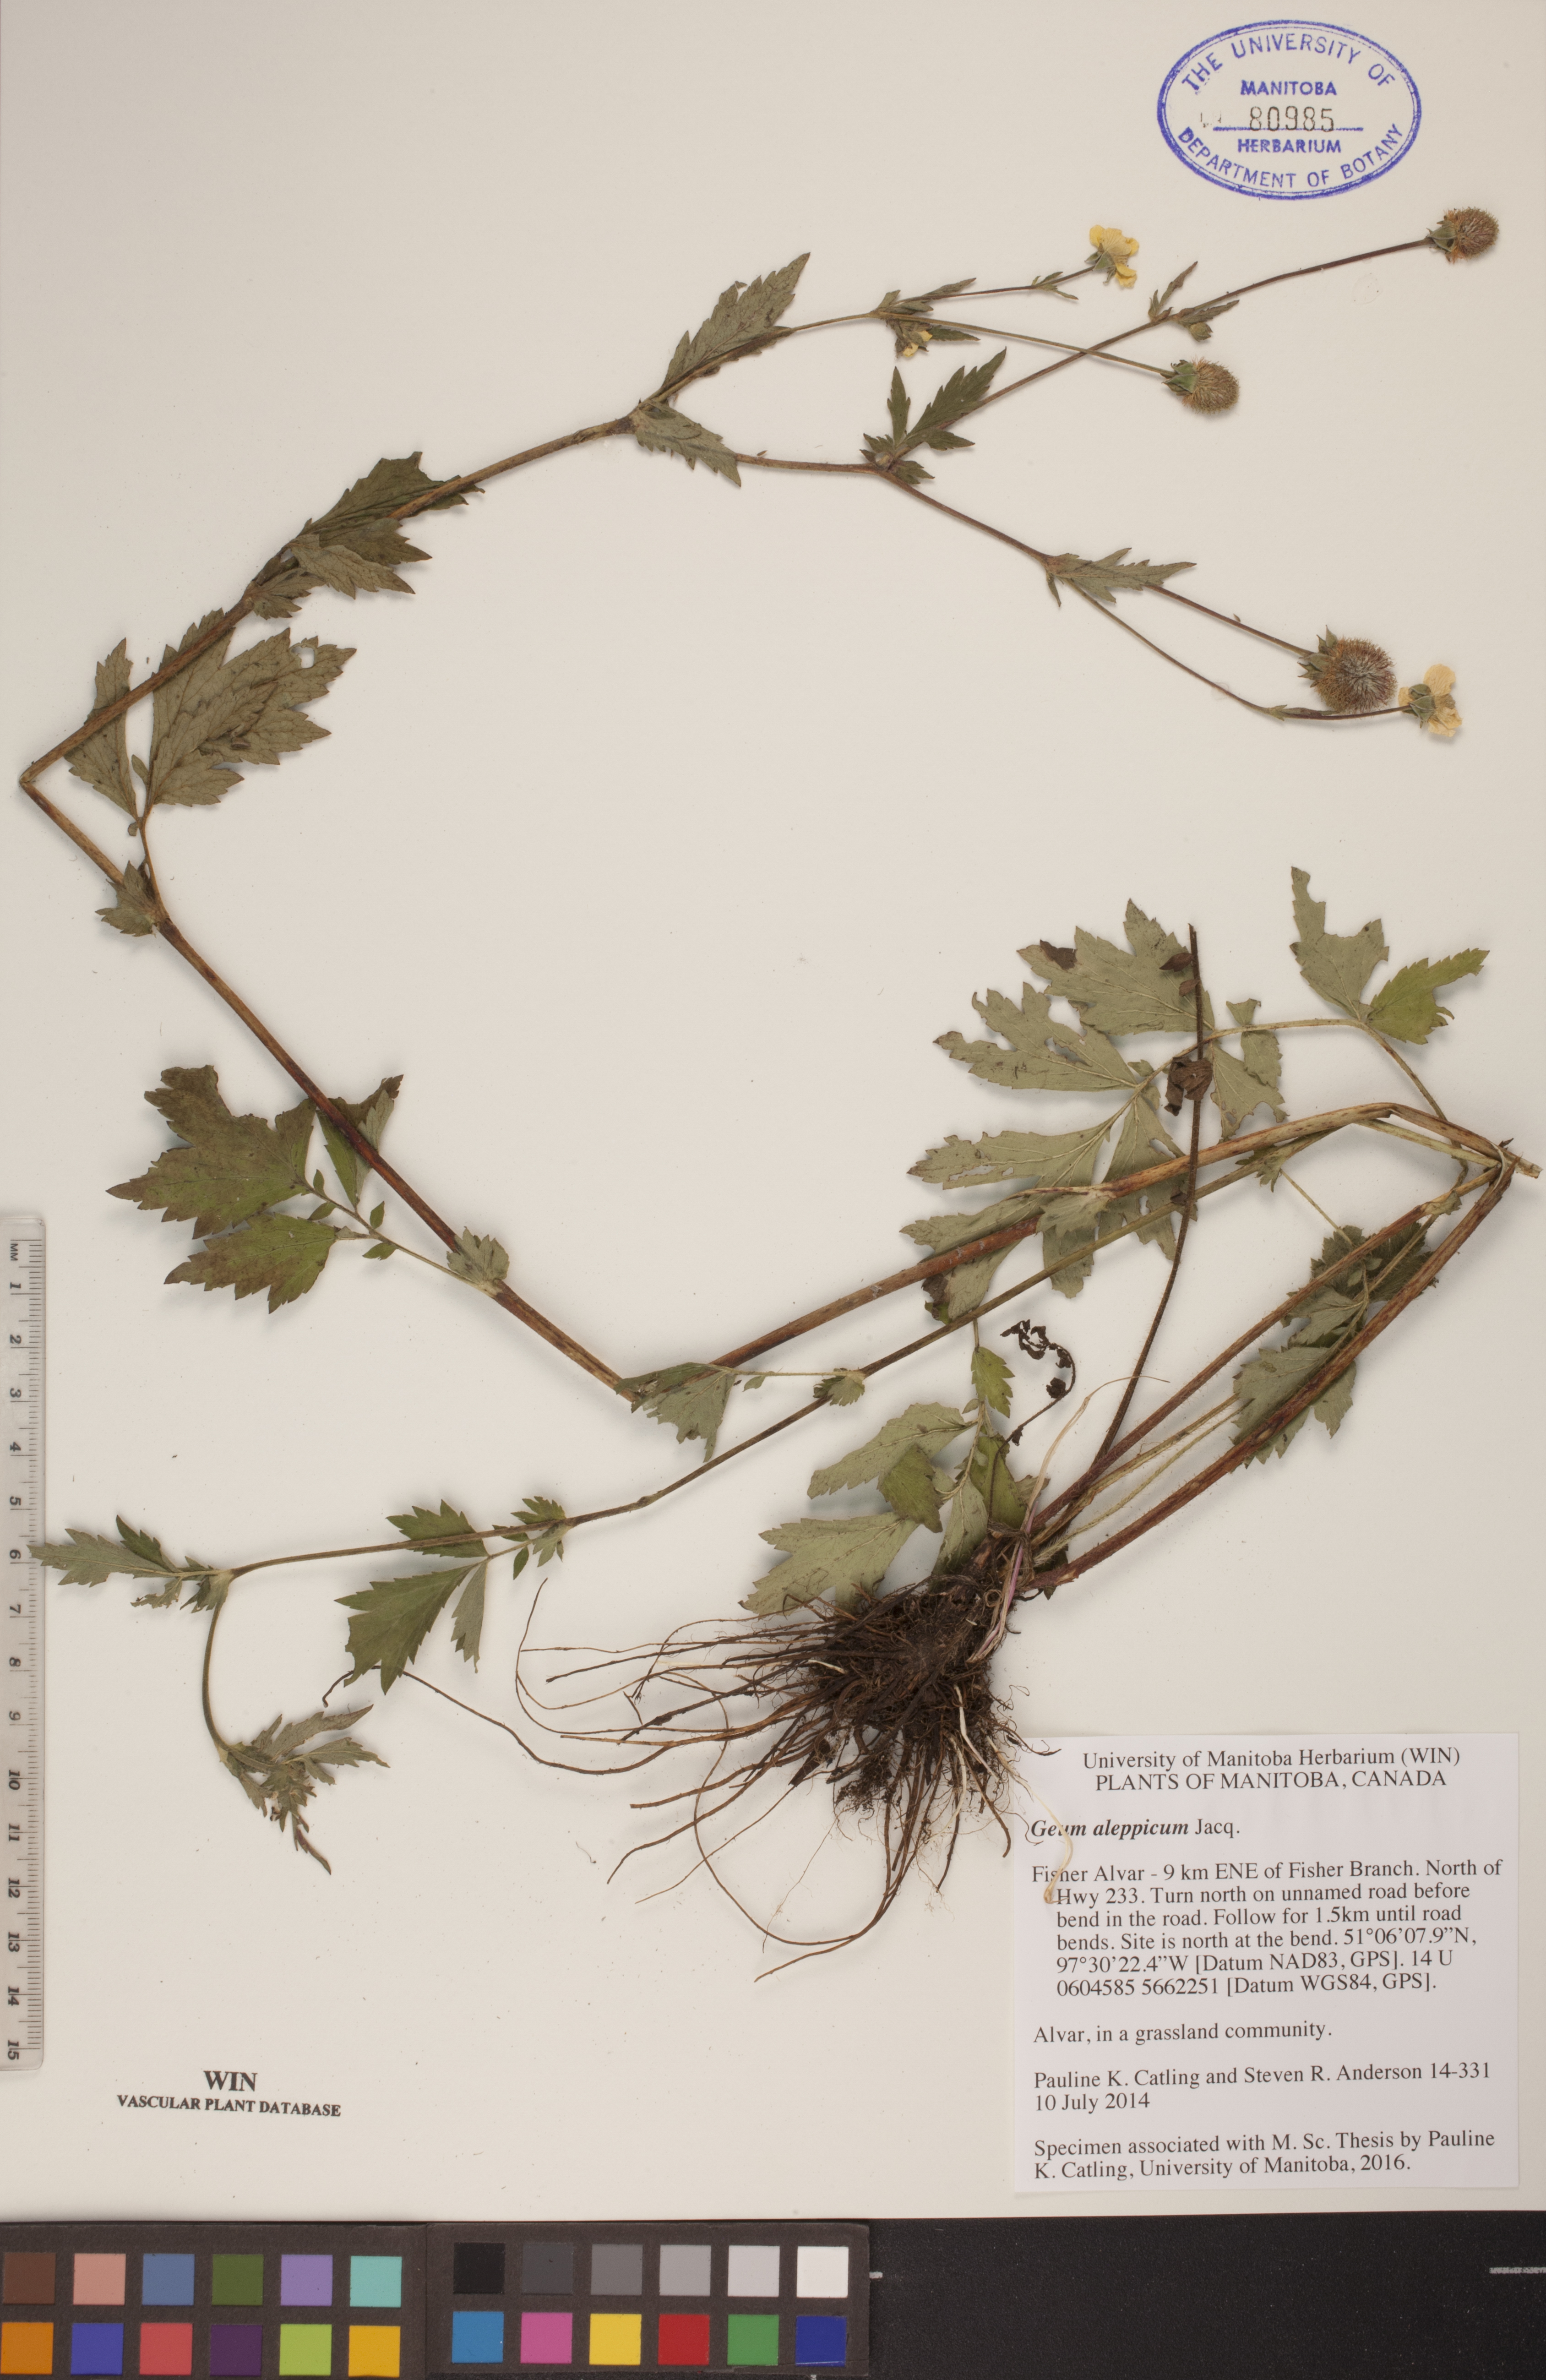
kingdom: Plantae
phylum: Tracheophyta
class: Magnoliopsida
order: Rosales
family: Rosaceae
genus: Geum
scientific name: Geum aleppicum
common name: Yellow avens
